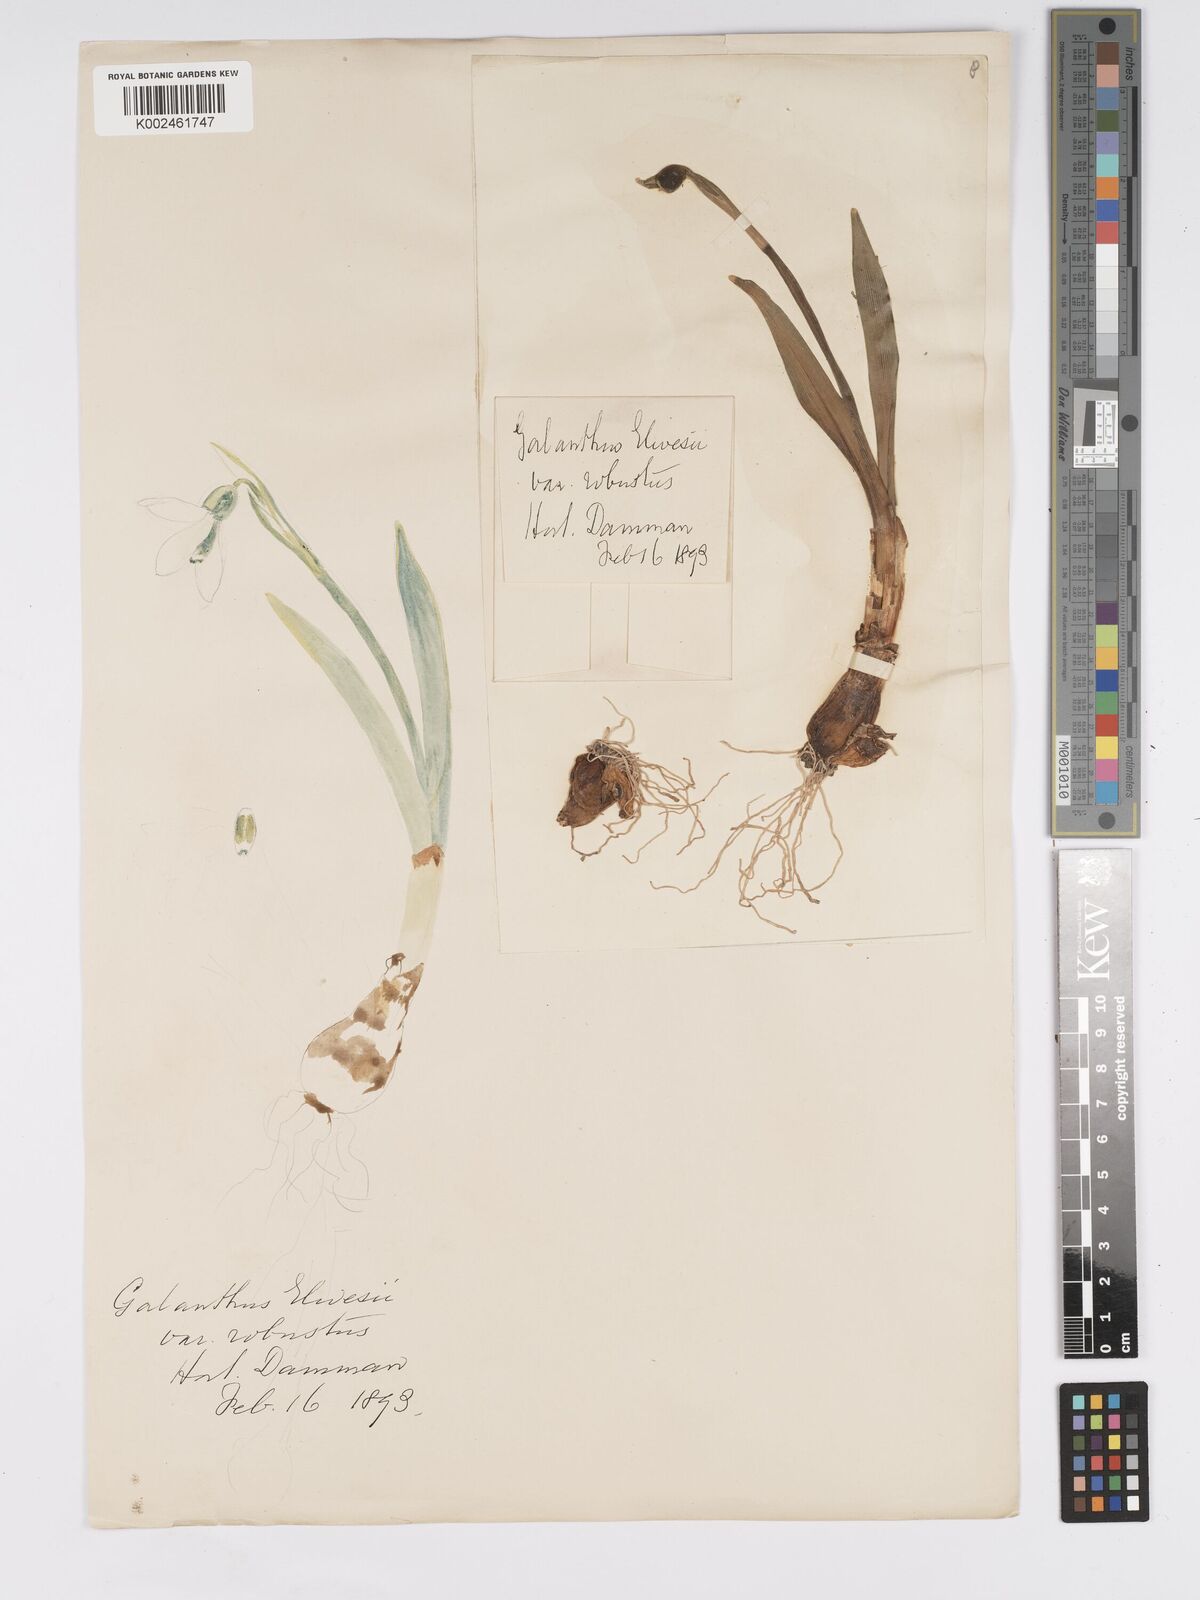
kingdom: Plantae
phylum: Tracheophyta
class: Liliopsida
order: Asparagales
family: Amaryllidaceae
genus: Galanthus
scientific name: Galanthus elwesii
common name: Greater snowdrop
